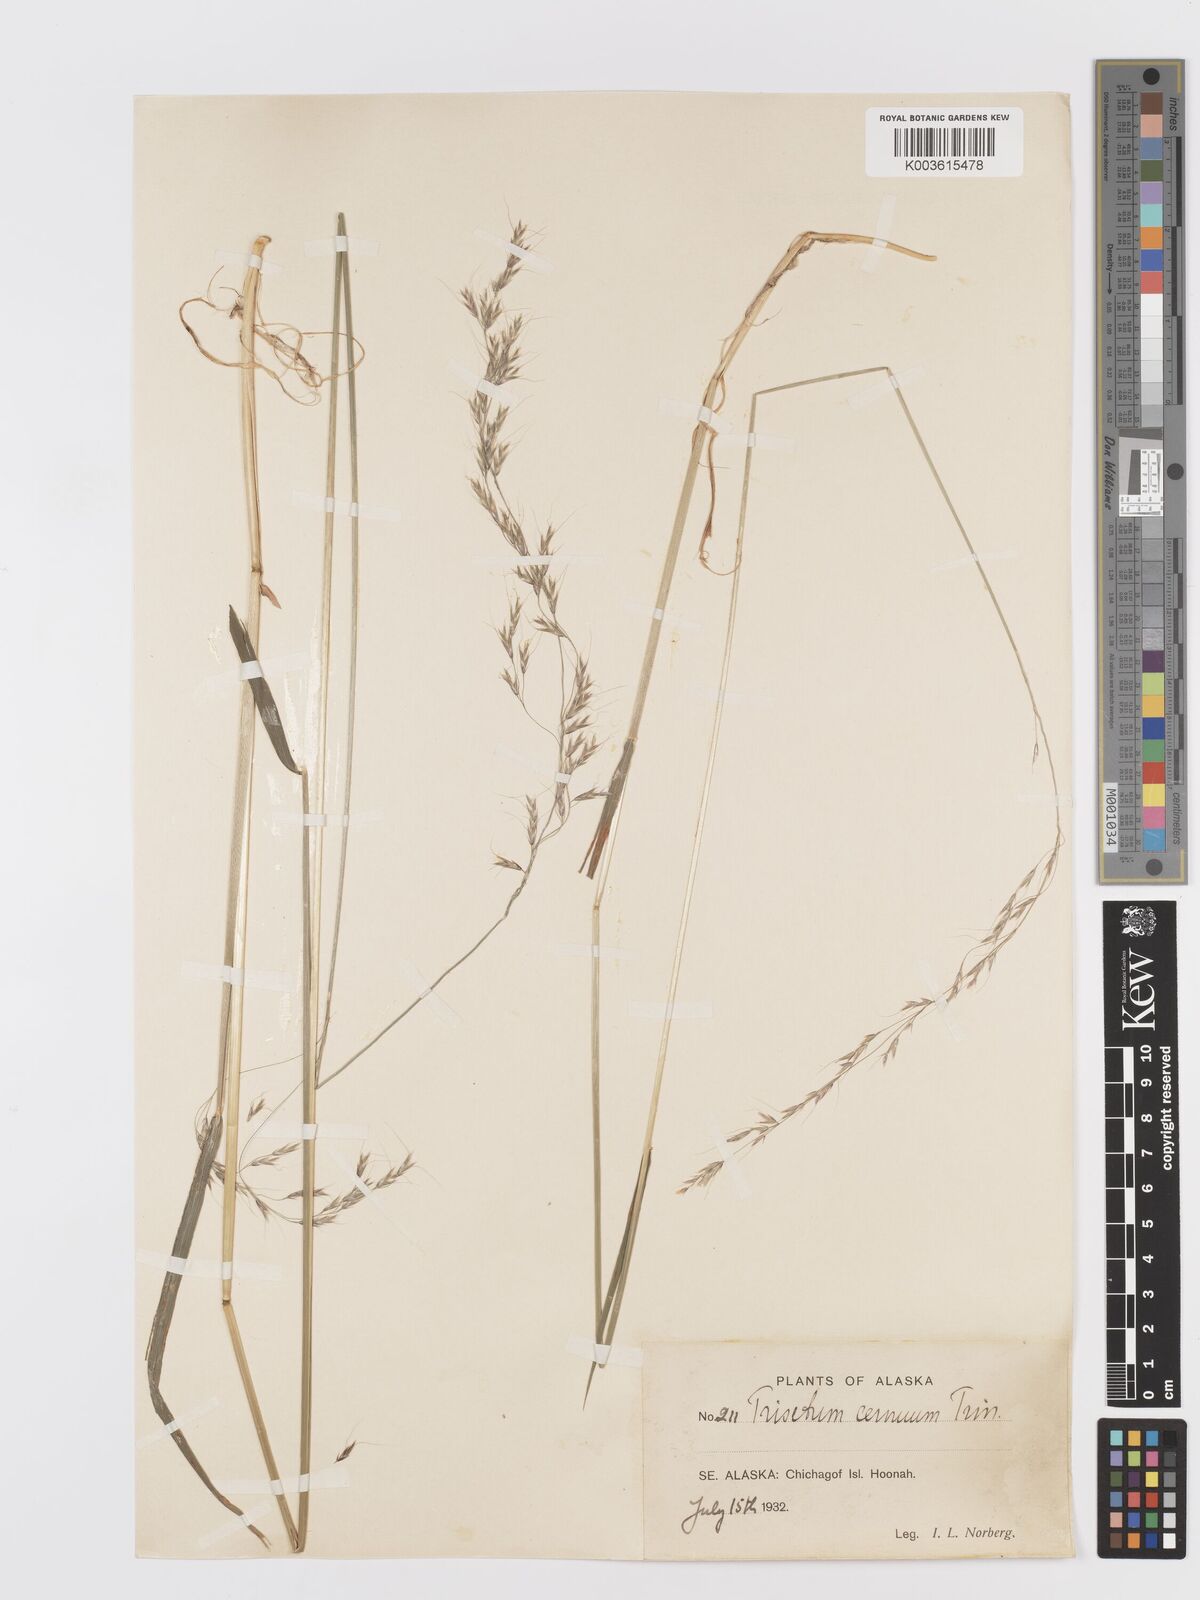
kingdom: Plantae
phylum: Tracheophyta
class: Liliopsida
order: Poales
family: Poaceae
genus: Graphephorum
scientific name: Graphephorum cernuum
